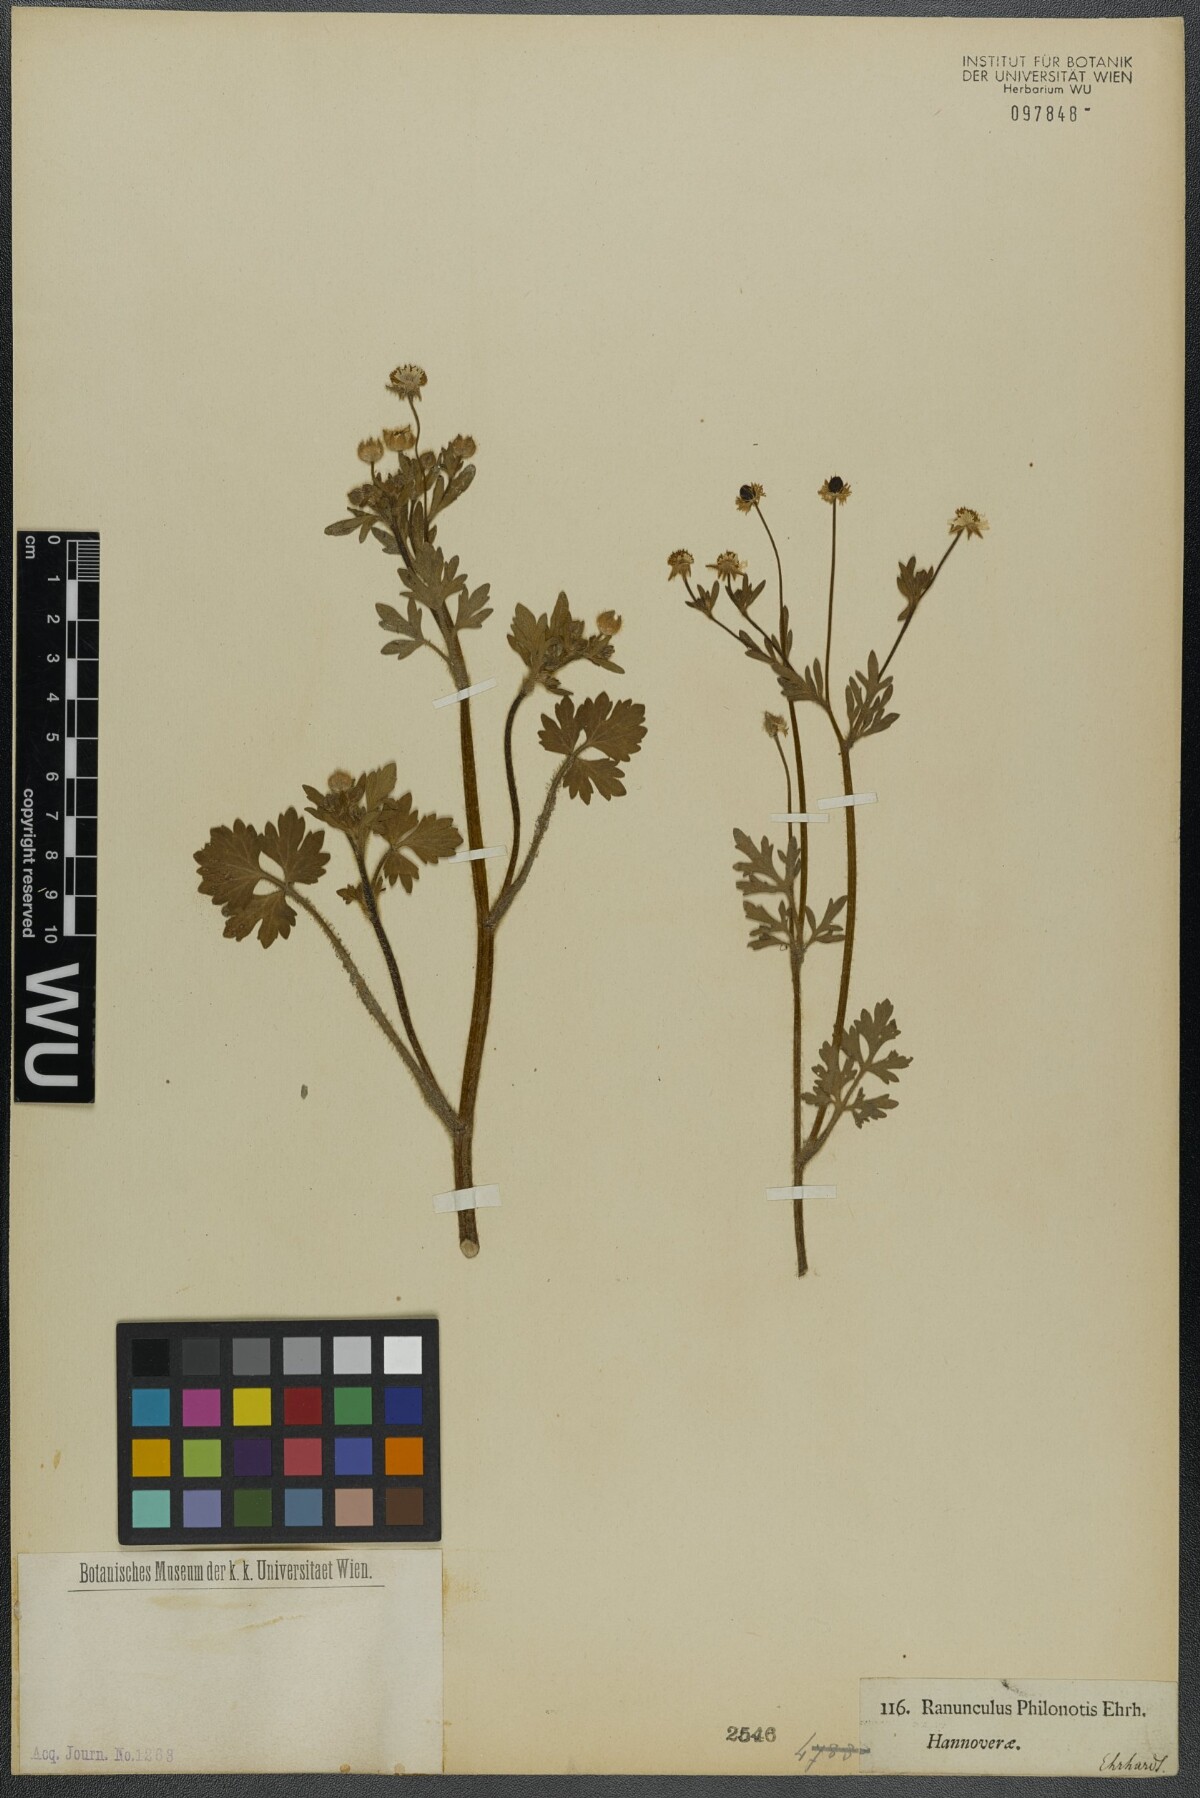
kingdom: Plantae
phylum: Tracheophyta
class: Magnoliopsida
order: Ranunculales
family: Ranunculaceae
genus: Ranunculus
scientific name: Ranunculus sardous
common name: Hairy buttercup
